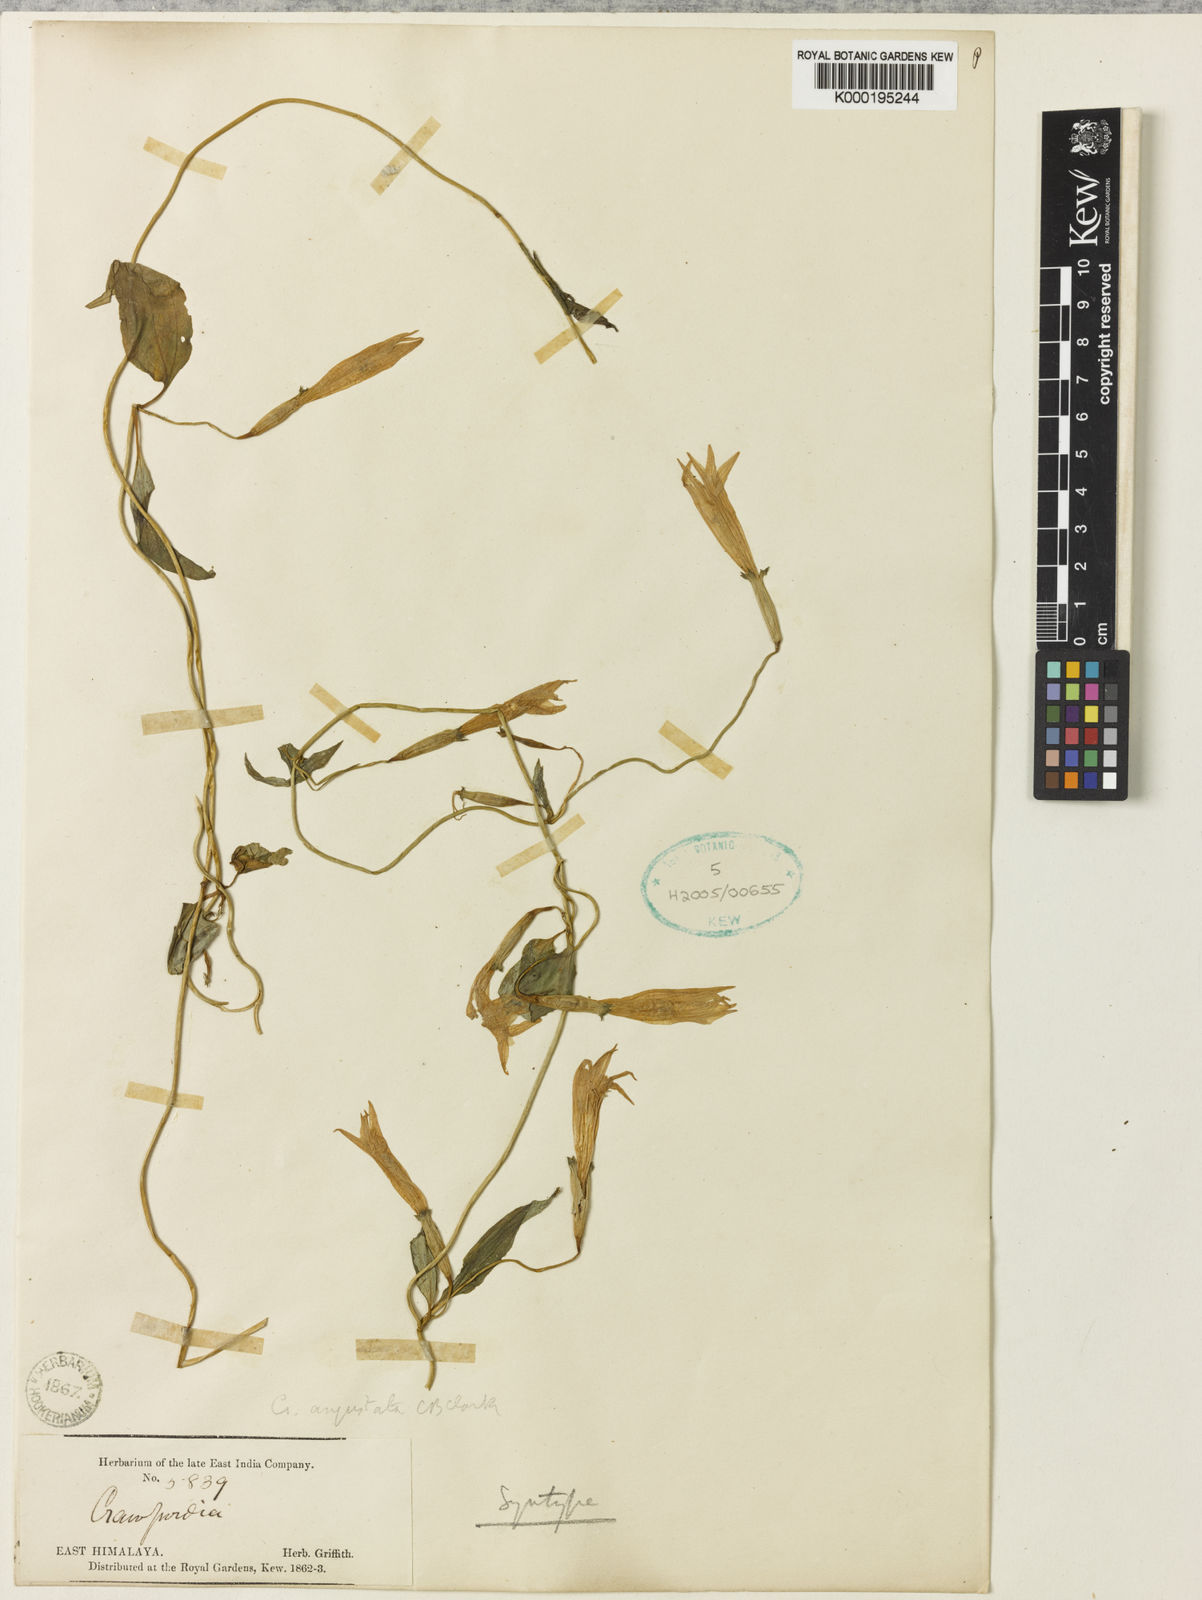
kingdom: Plantae
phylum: Tracheophyta
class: Magnoliopsida
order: Gentianales
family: Gentianaceae
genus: Crawfurdia
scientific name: Crawfurdia angustata
